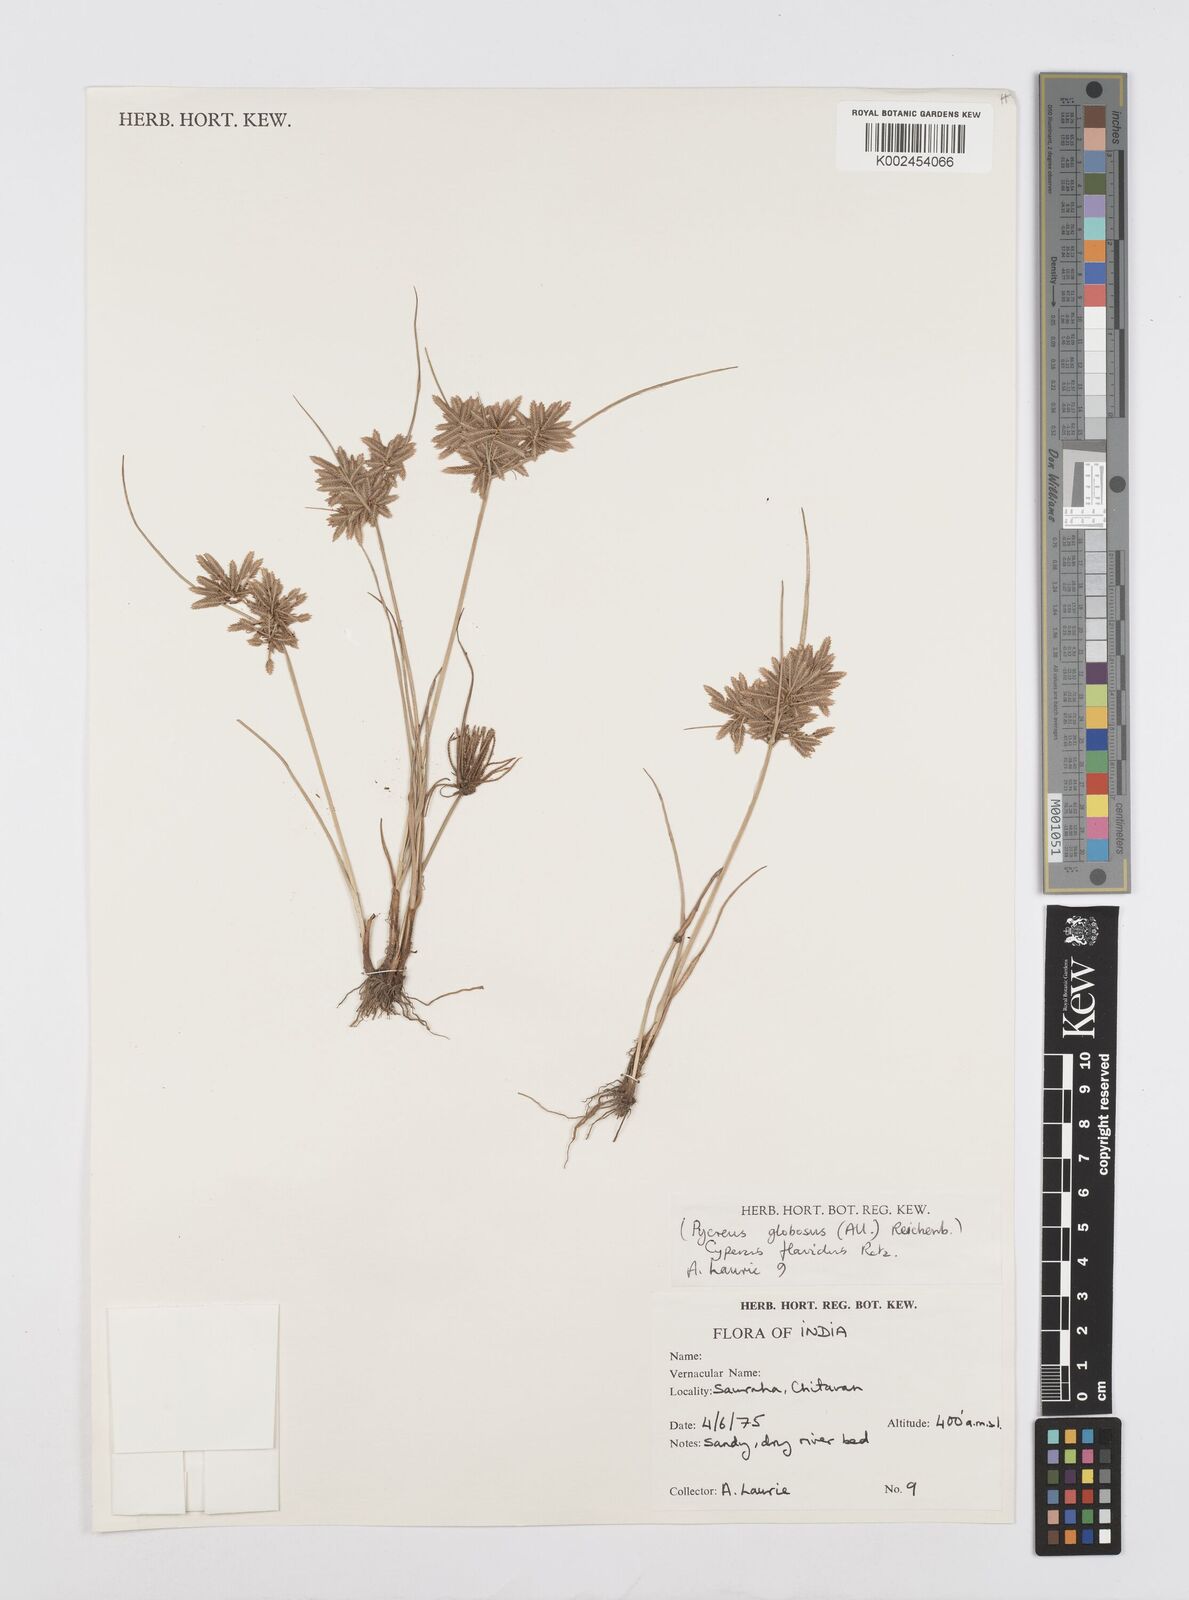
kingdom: Plantae
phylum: Tracheophyta
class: Liliopsida
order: Poales
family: Cyperaceae
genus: Cyperus
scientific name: Cyperus flavidus
